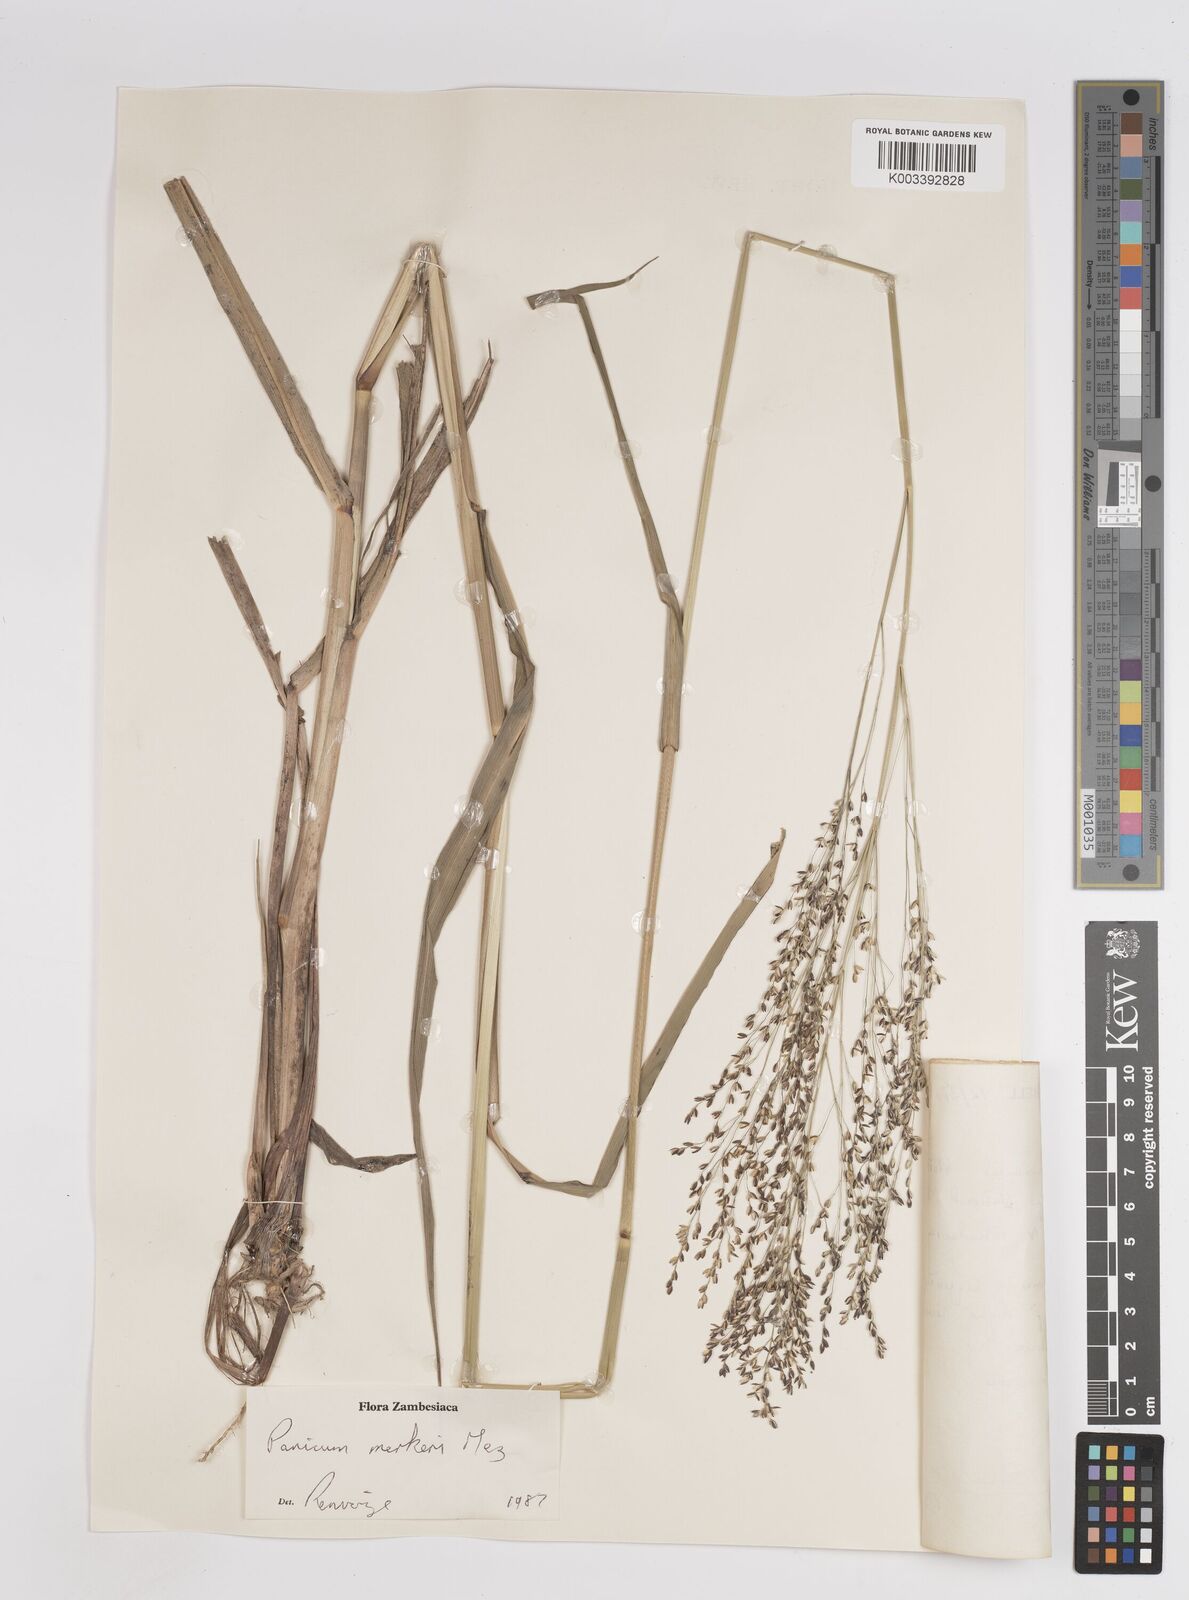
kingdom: Plantae
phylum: Tracheophyta
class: Liliopsida
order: Poales
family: Poaceae
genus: Panicum
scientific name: Panicum merkeri
